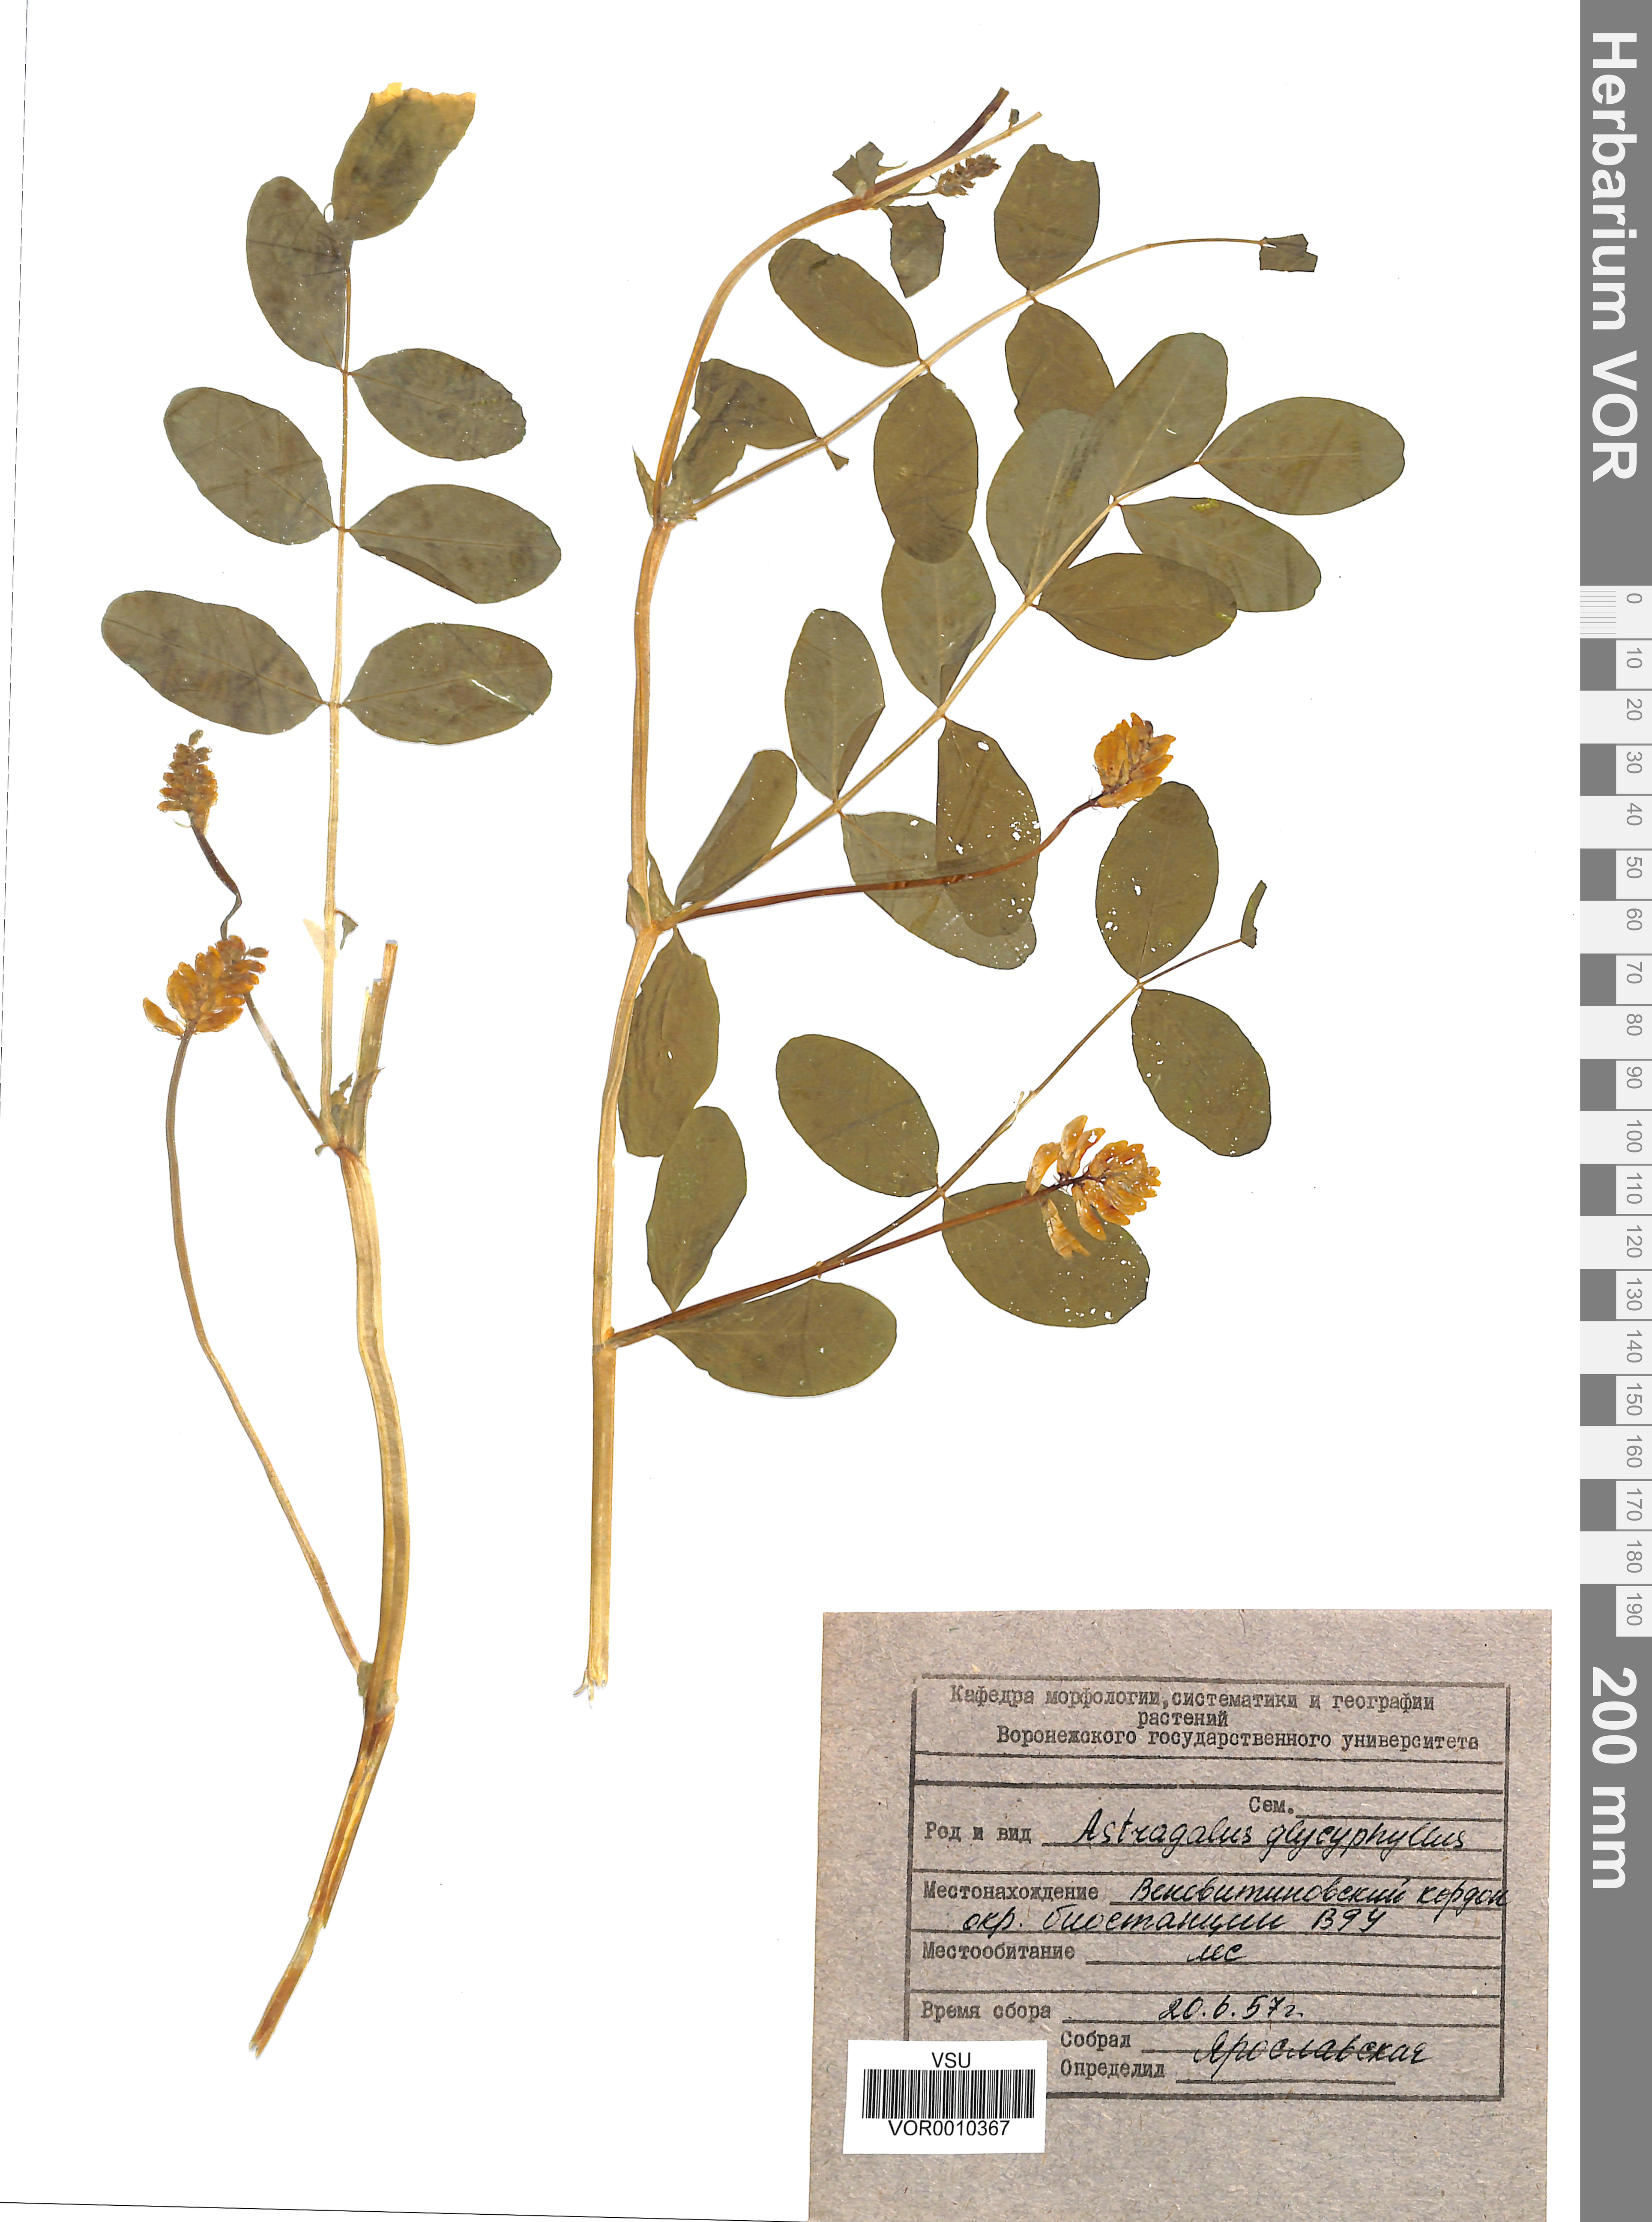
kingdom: Plantae
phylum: Tracheophyta
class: Magnoliopsida
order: Fabales
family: Fabaceae
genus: Astragalus
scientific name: Astragalus glycyphyllos
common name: Wild liquorice
